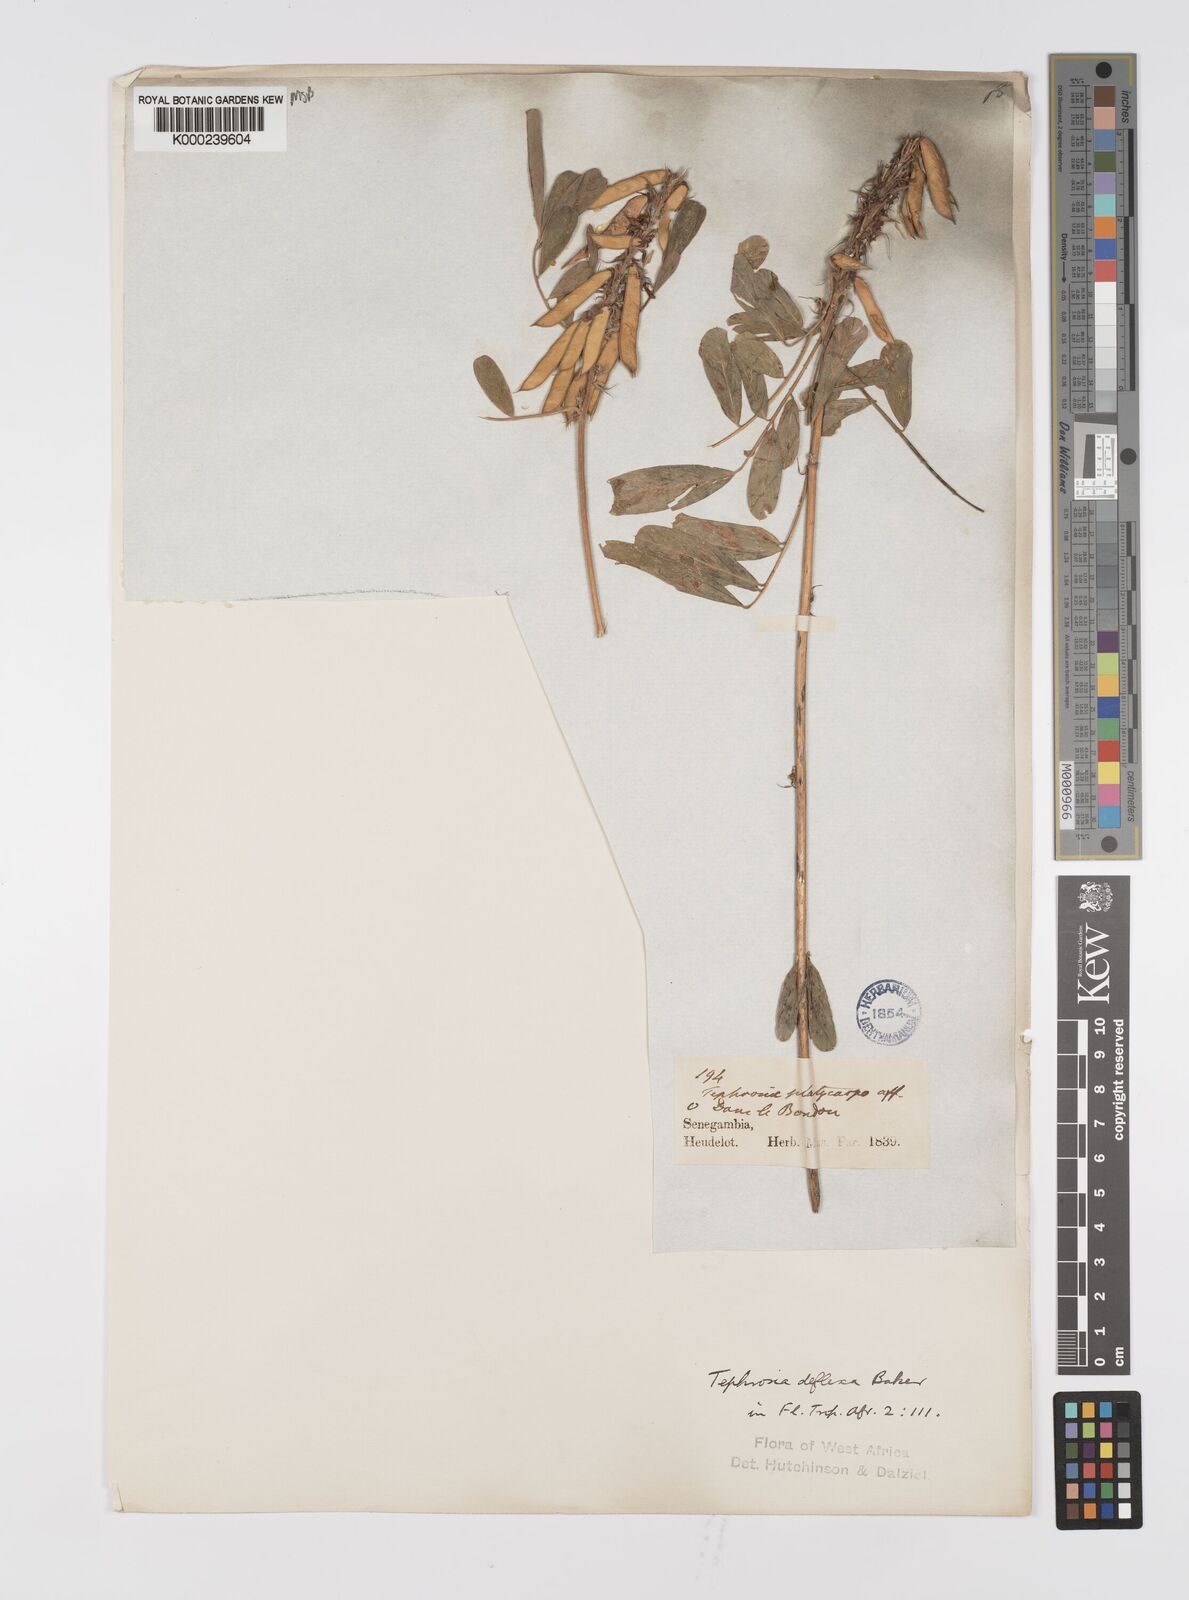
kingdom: Plantae
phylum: Tracheophyta
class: Magnoliopsida
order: Fabales
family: Fabaceae
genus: Tephrosia
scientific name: Tephrosia deflexa
